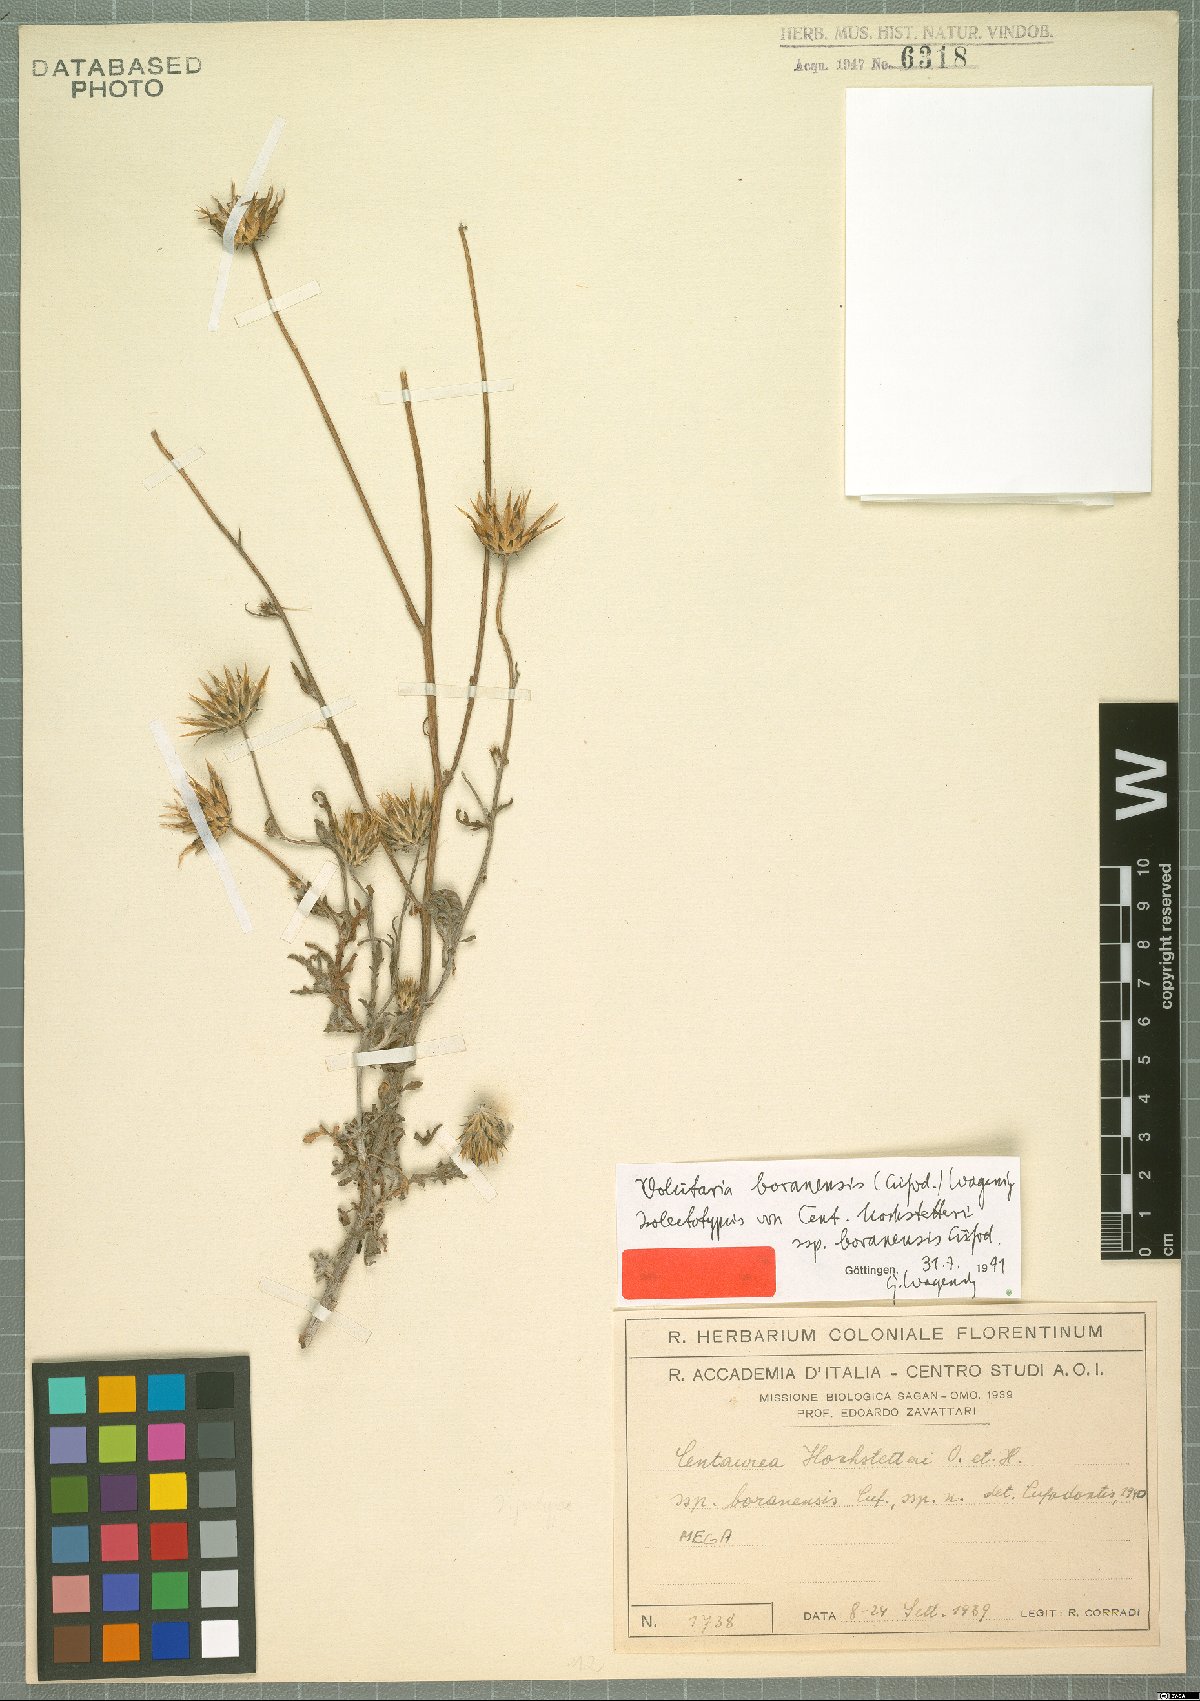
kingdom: Plantae
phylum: Tracheophyta
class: Magnoliopsida
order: Asterales
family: Asteraceae
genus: Volutaria
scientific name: Volutaria boranensis
